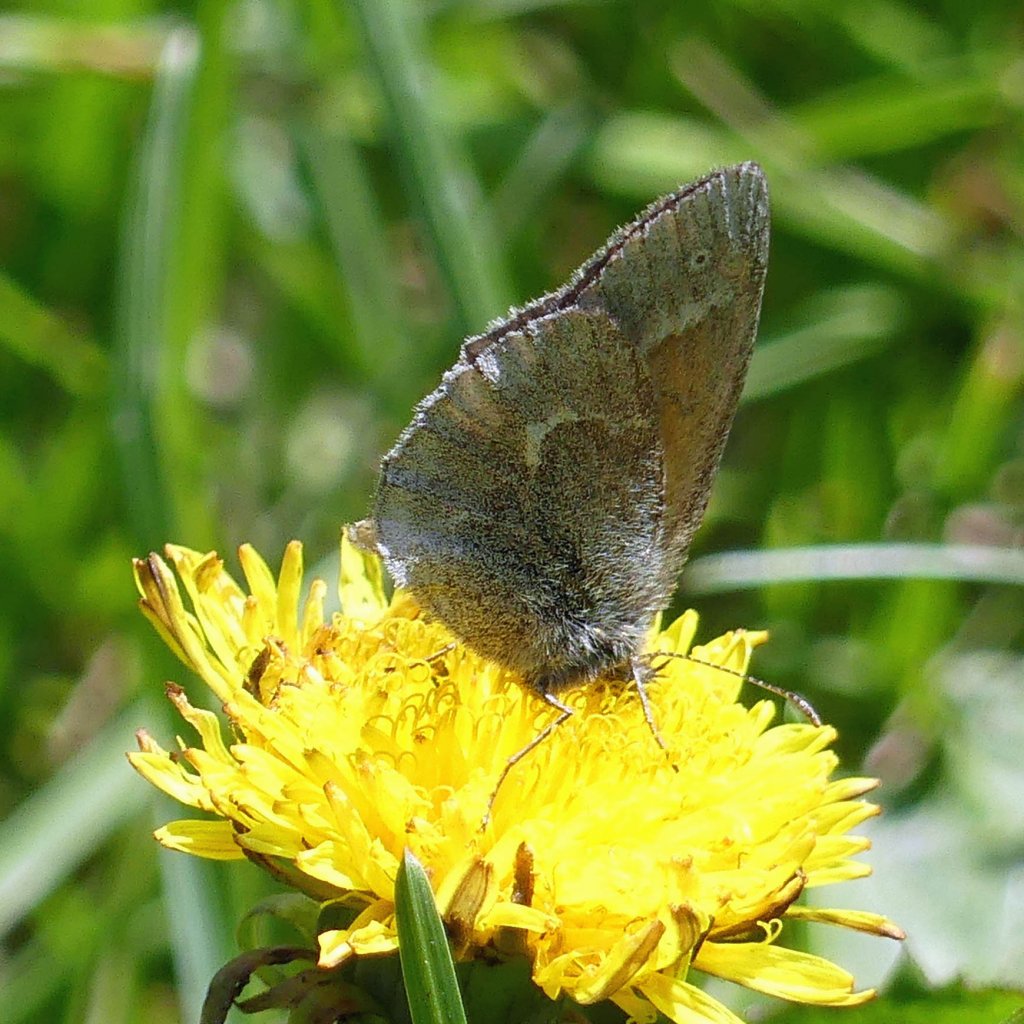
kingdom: Animalia
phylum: Arthropoda
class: Insecta
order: Lepidoptera
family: Nymphalidae
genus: Coenonympha
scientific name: Coenonympha tullia
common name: Large Heath
